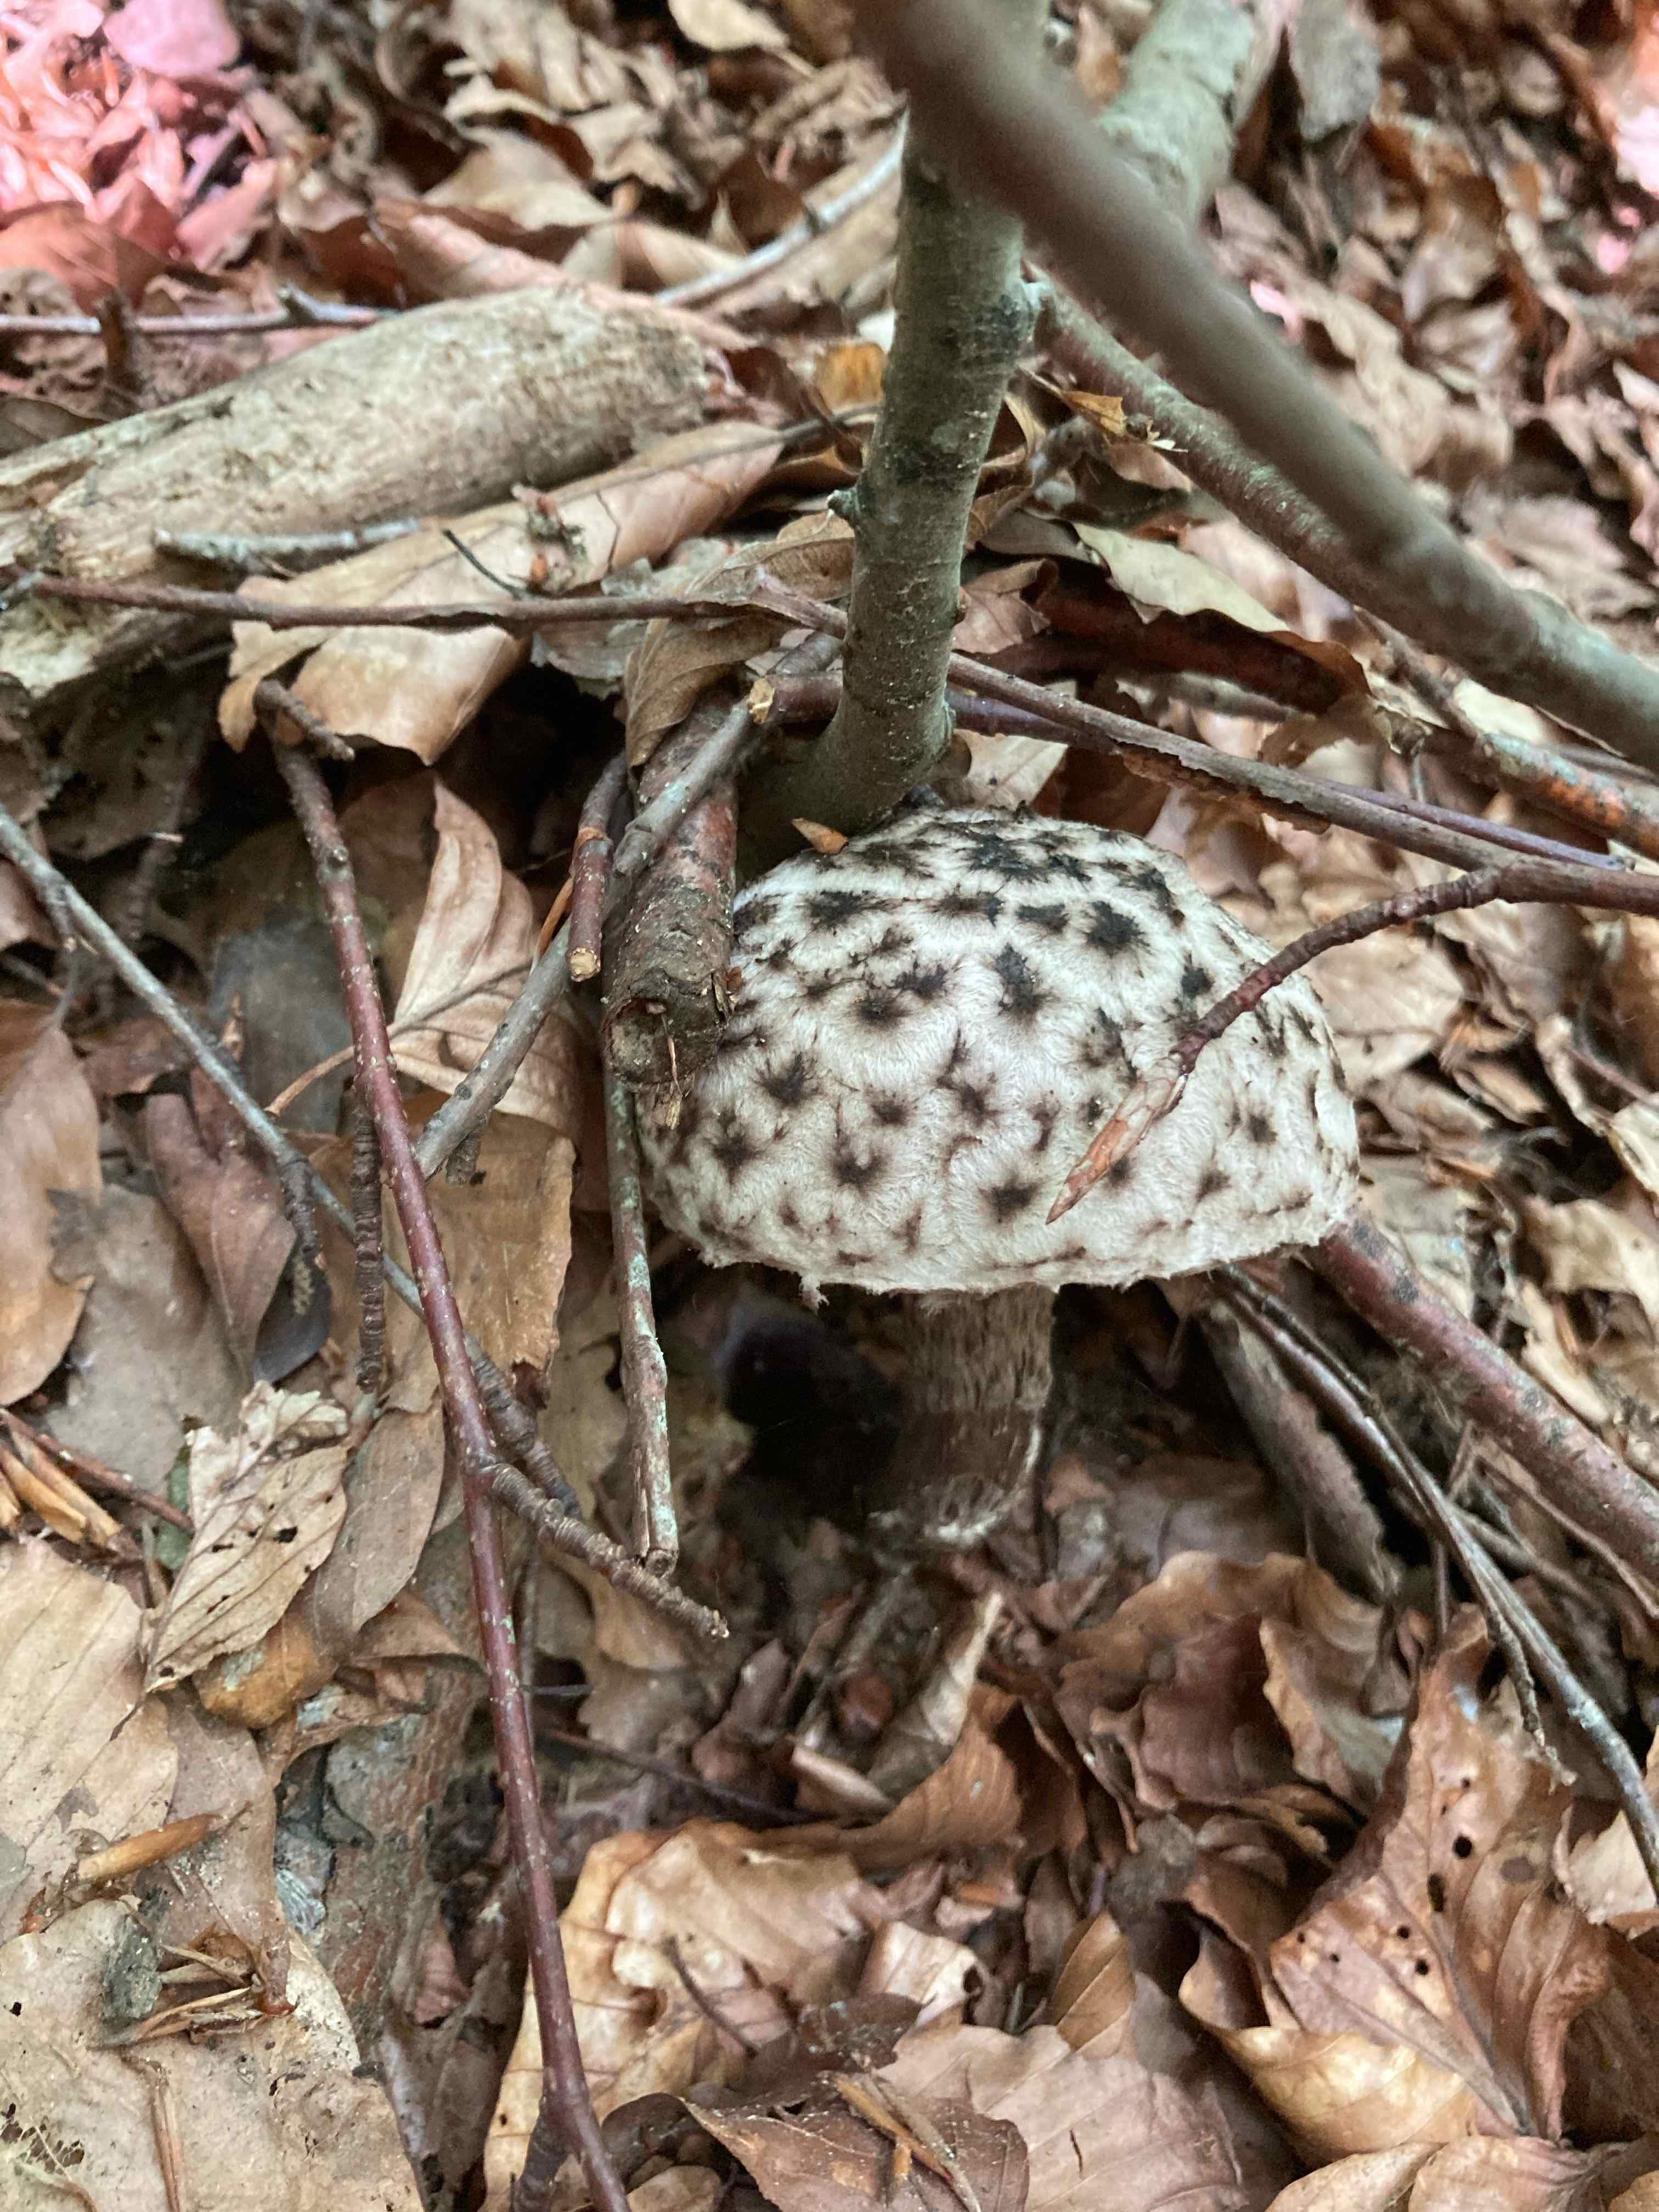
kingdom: Fungi
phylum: Basidiomycota
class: Agaricomycetes
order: Boletales
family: Boletaceae
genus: Strobilomyces
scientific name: Strobilomyces strobilaceus
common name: koglerørhat
